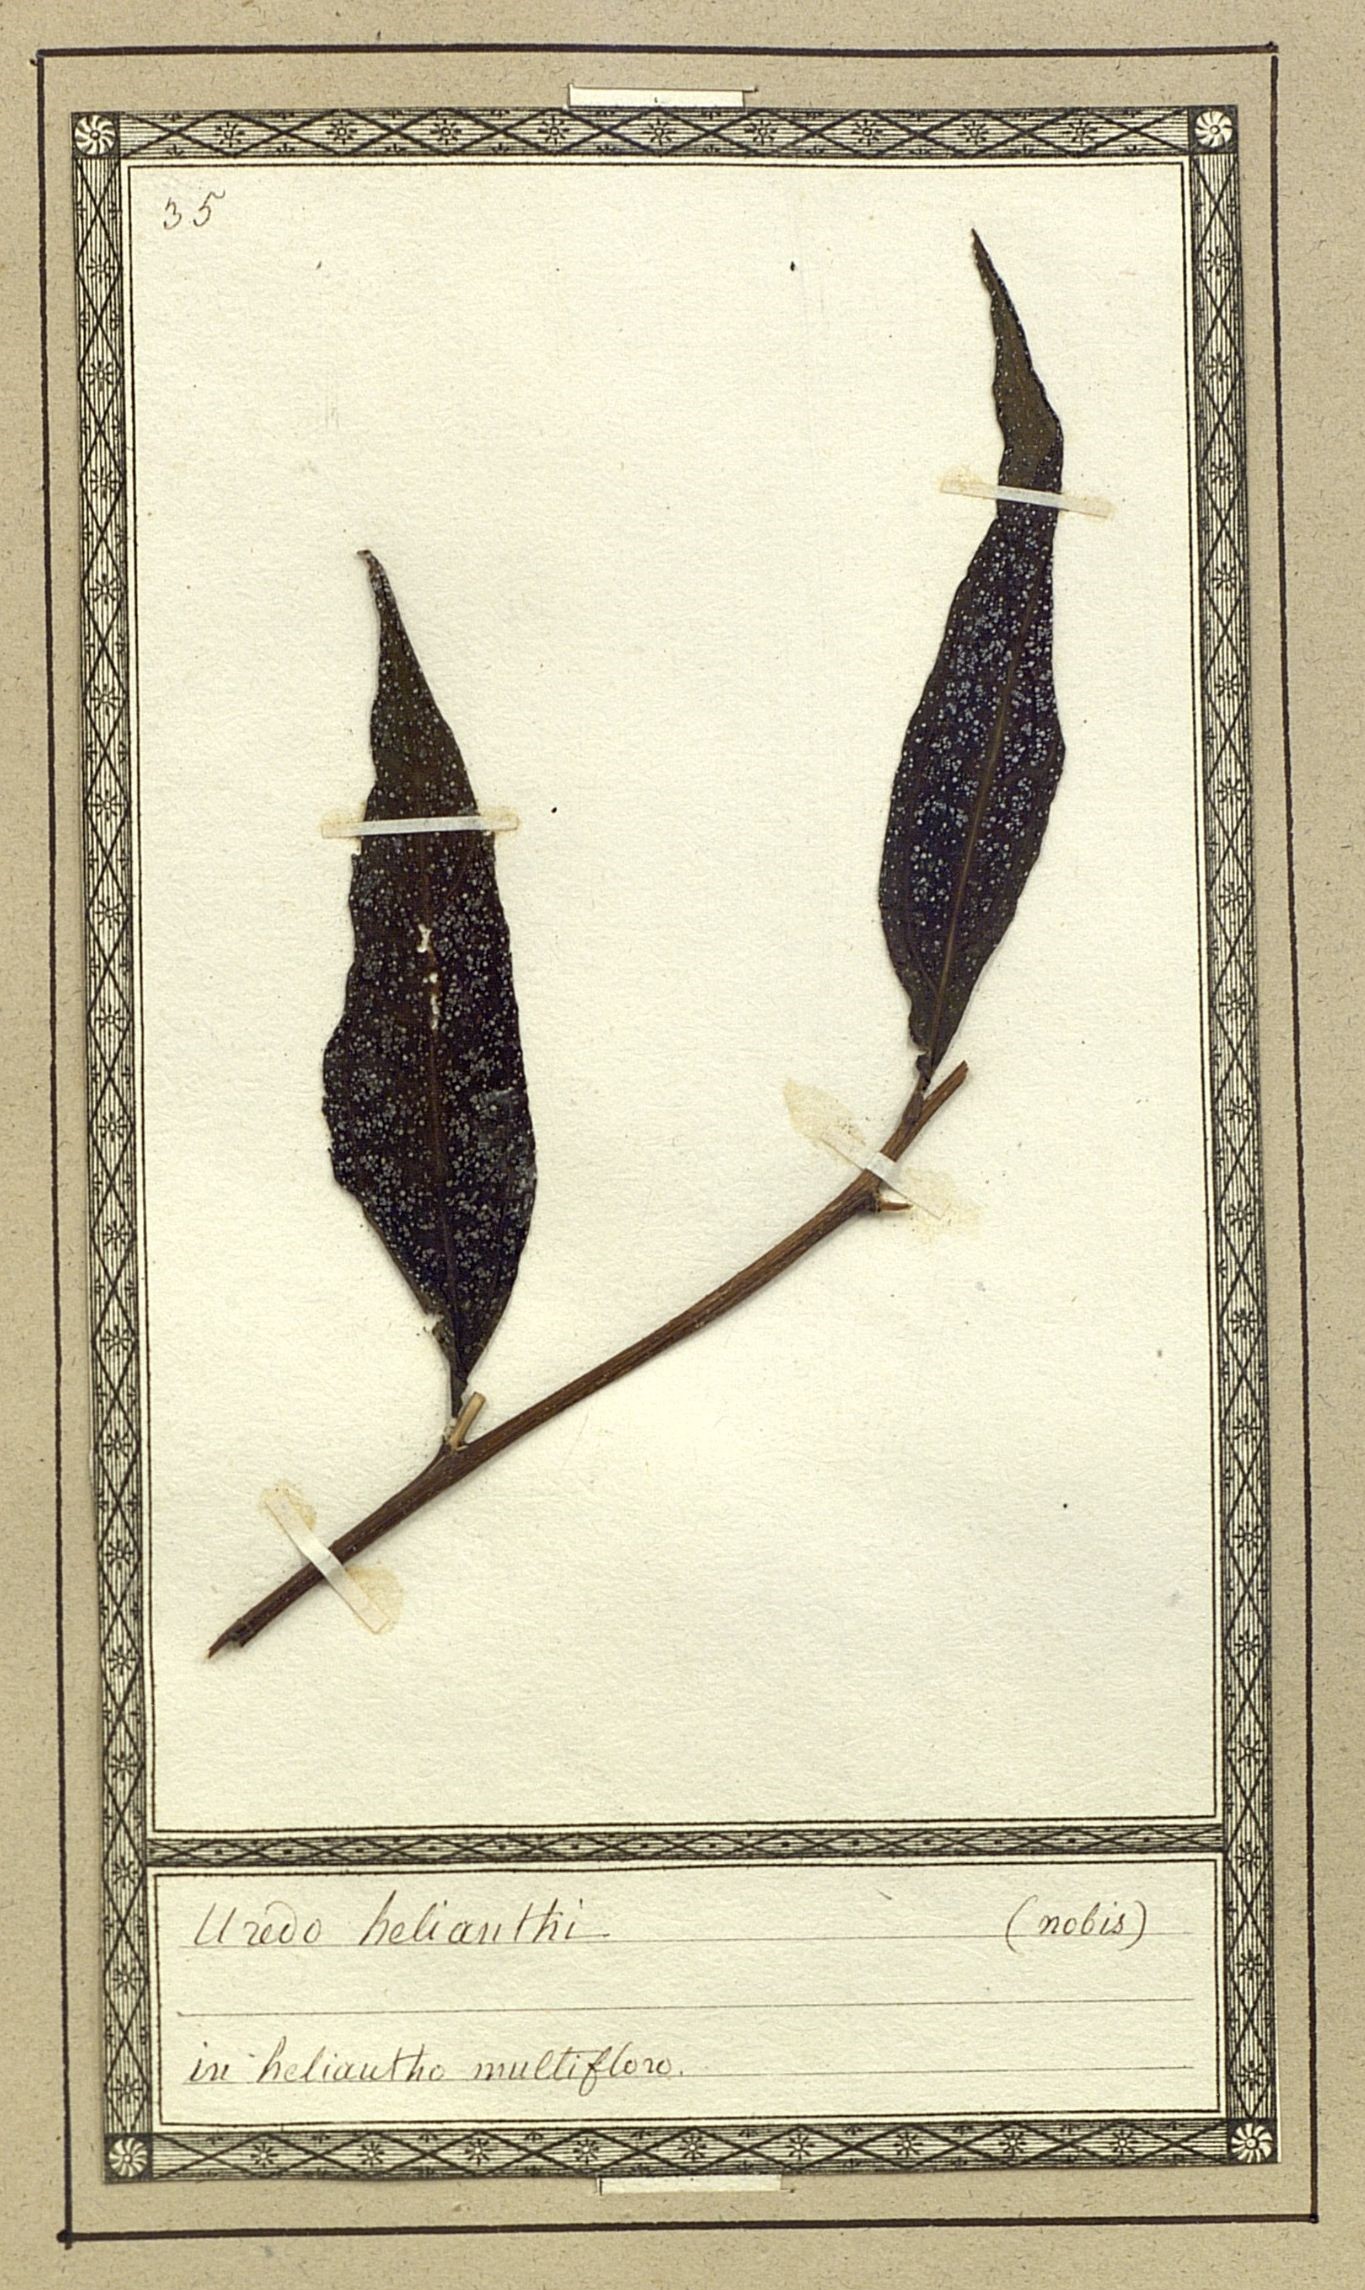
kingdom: Fungi
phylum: Basidiomycota
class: Pucciniomycetes
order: Pucciniales
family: Pucciniaceae
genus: Puccinia
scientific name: Puccinia helianthi-mollis
